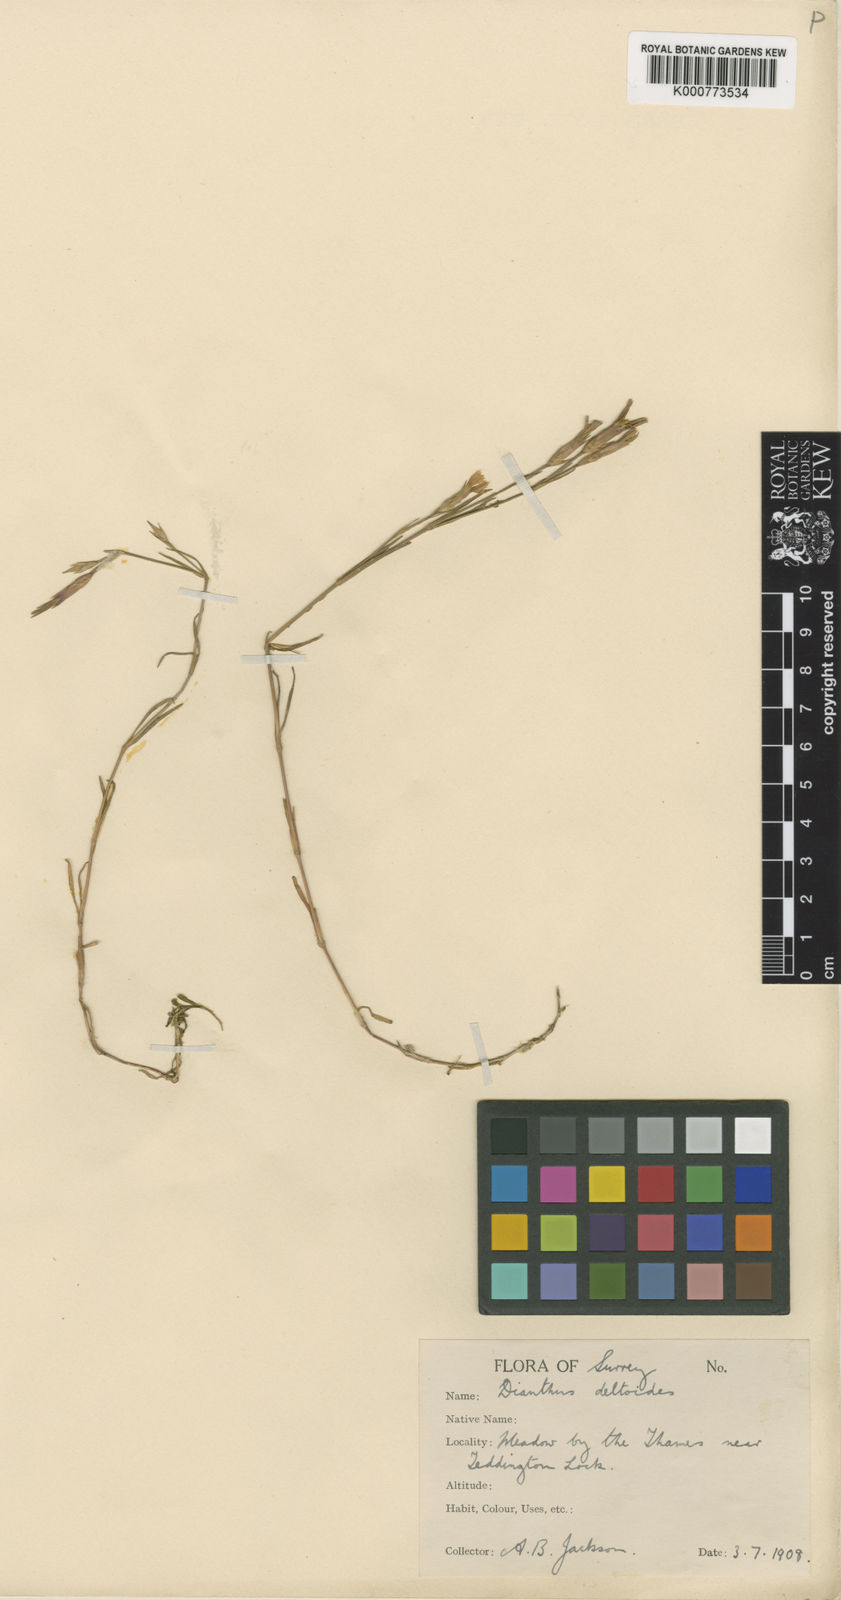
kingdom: Plantae
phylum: Tracheophyta
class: Magnoliopsida
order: Caryophyllales
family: Caryophyllaceae
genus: Dianthus
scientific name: Dianthus deltoides
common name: Maiden pink
